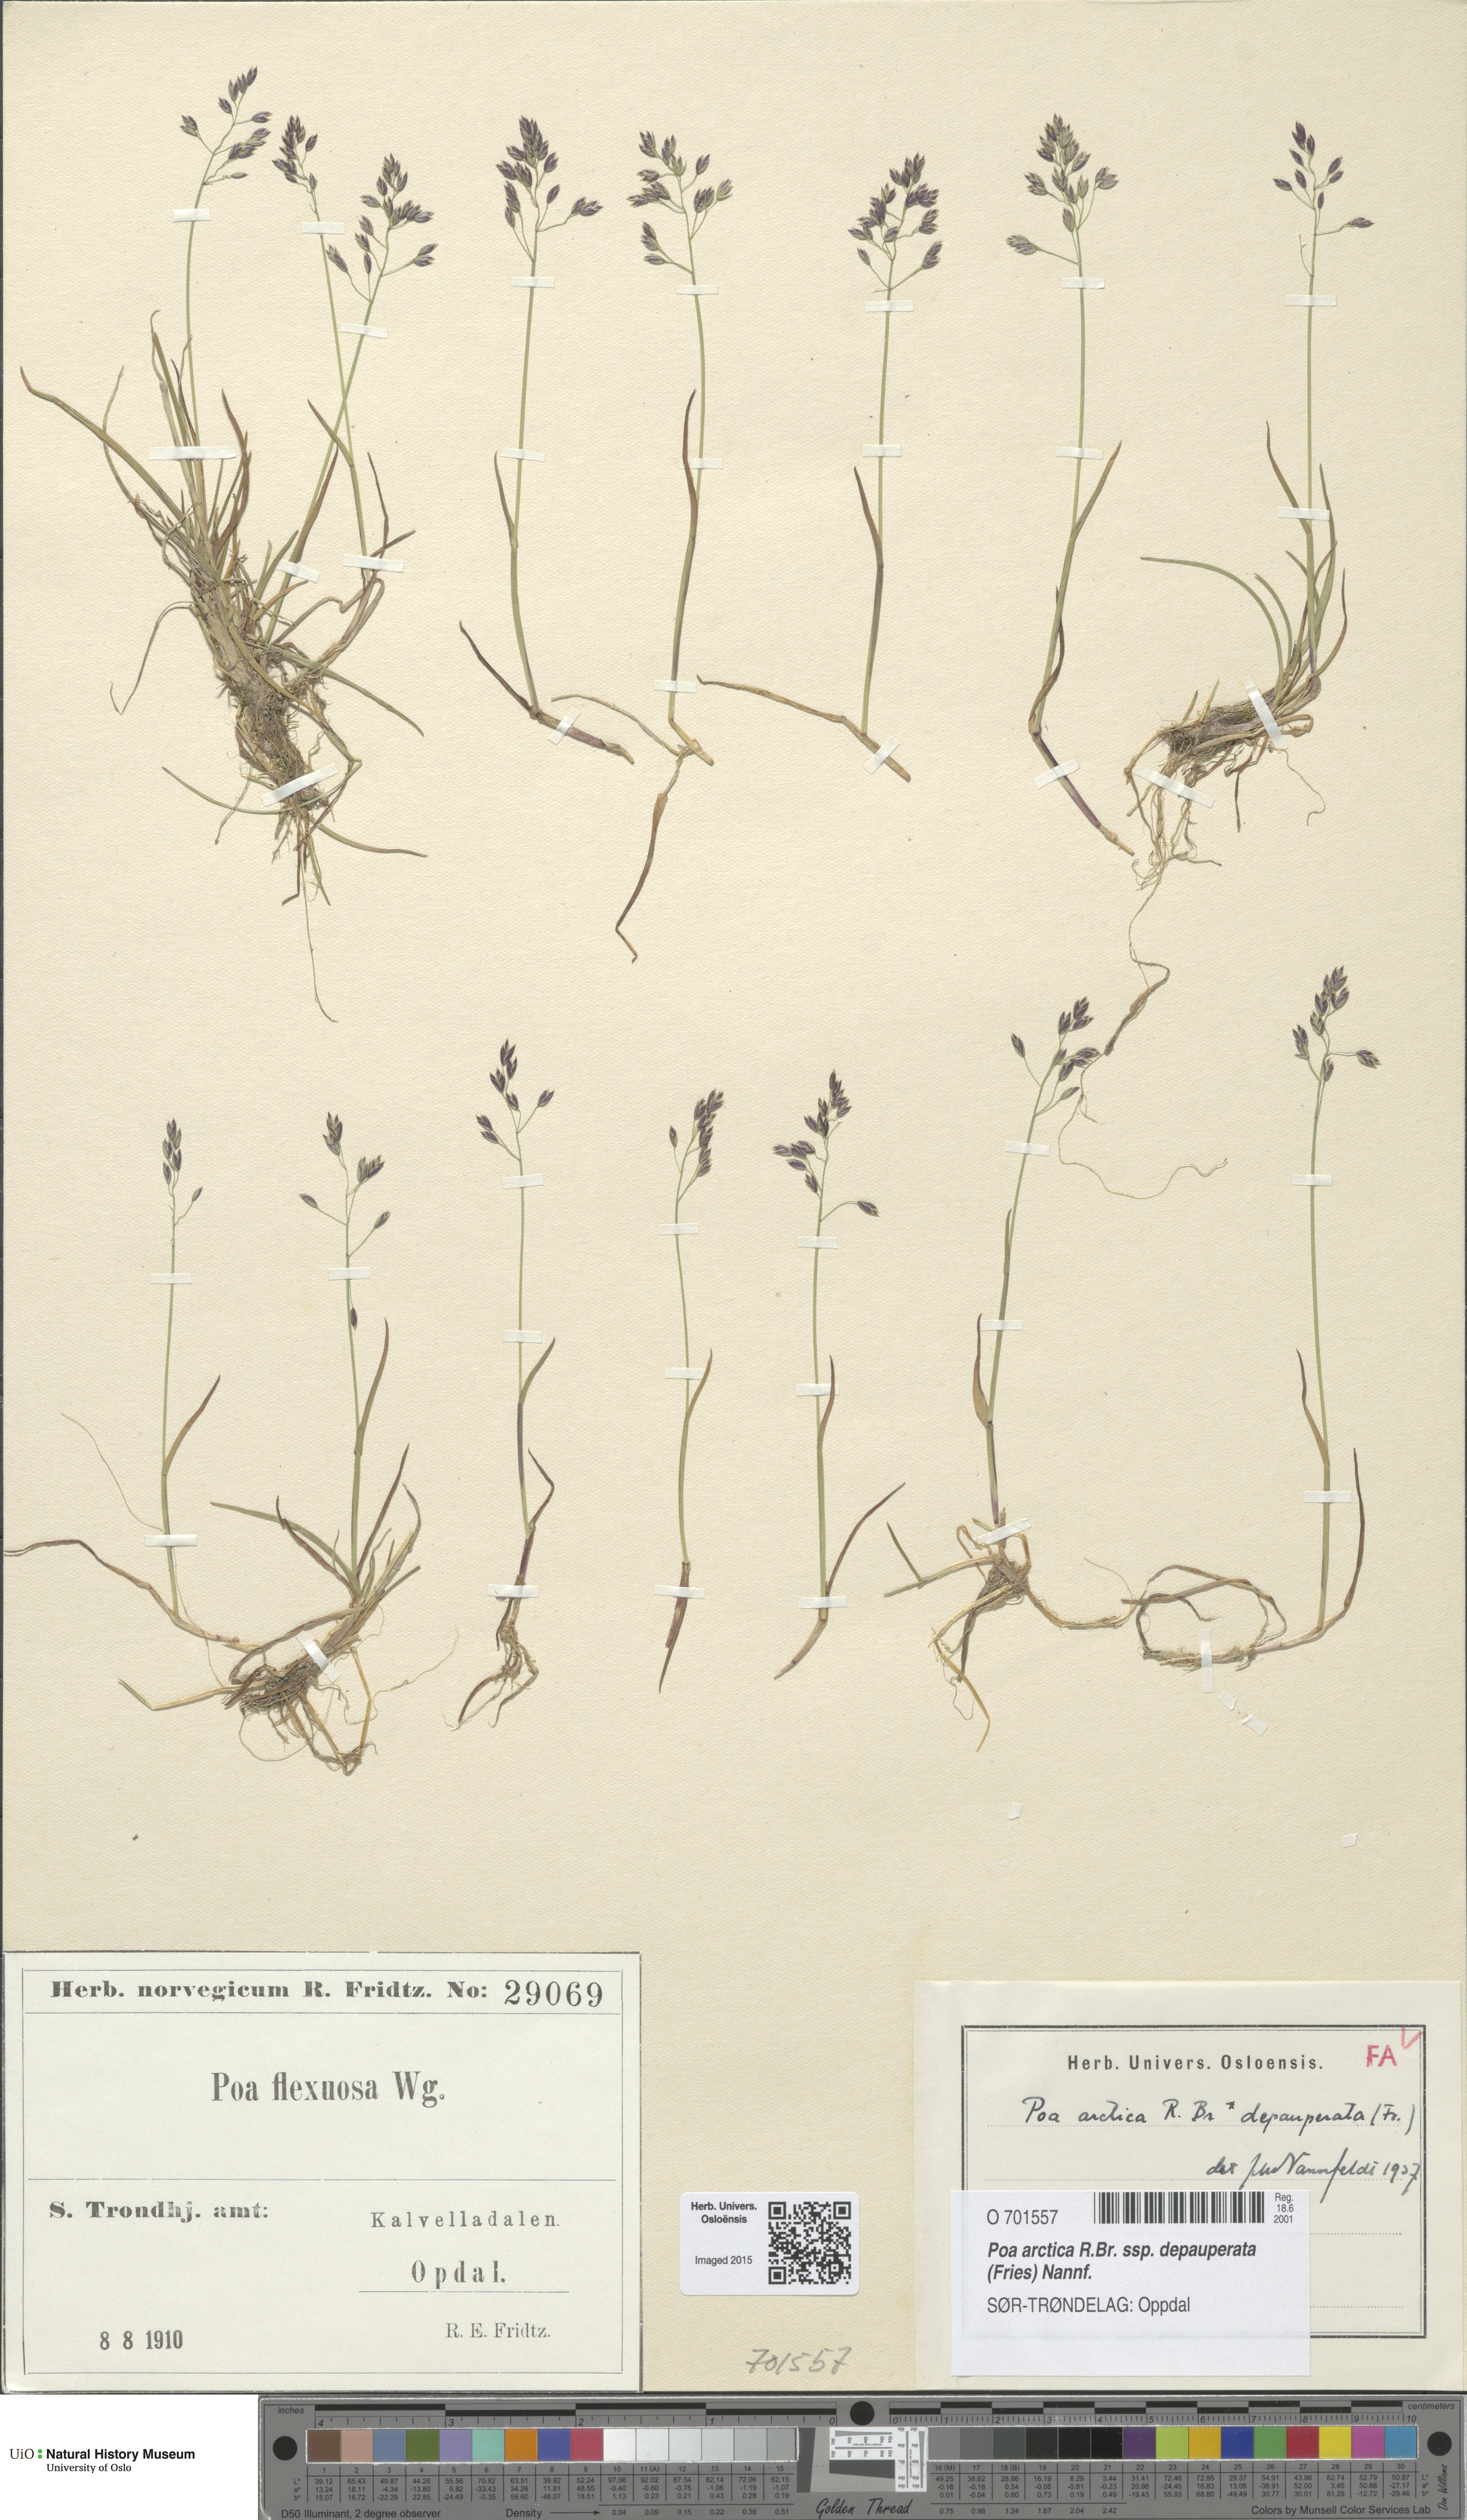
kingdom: Plantae
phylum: Tracheophyta
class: Liliopsida
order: Poales
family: Poaceae
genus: Poa
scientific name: Poa arctica
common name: Arctic bluegrass
